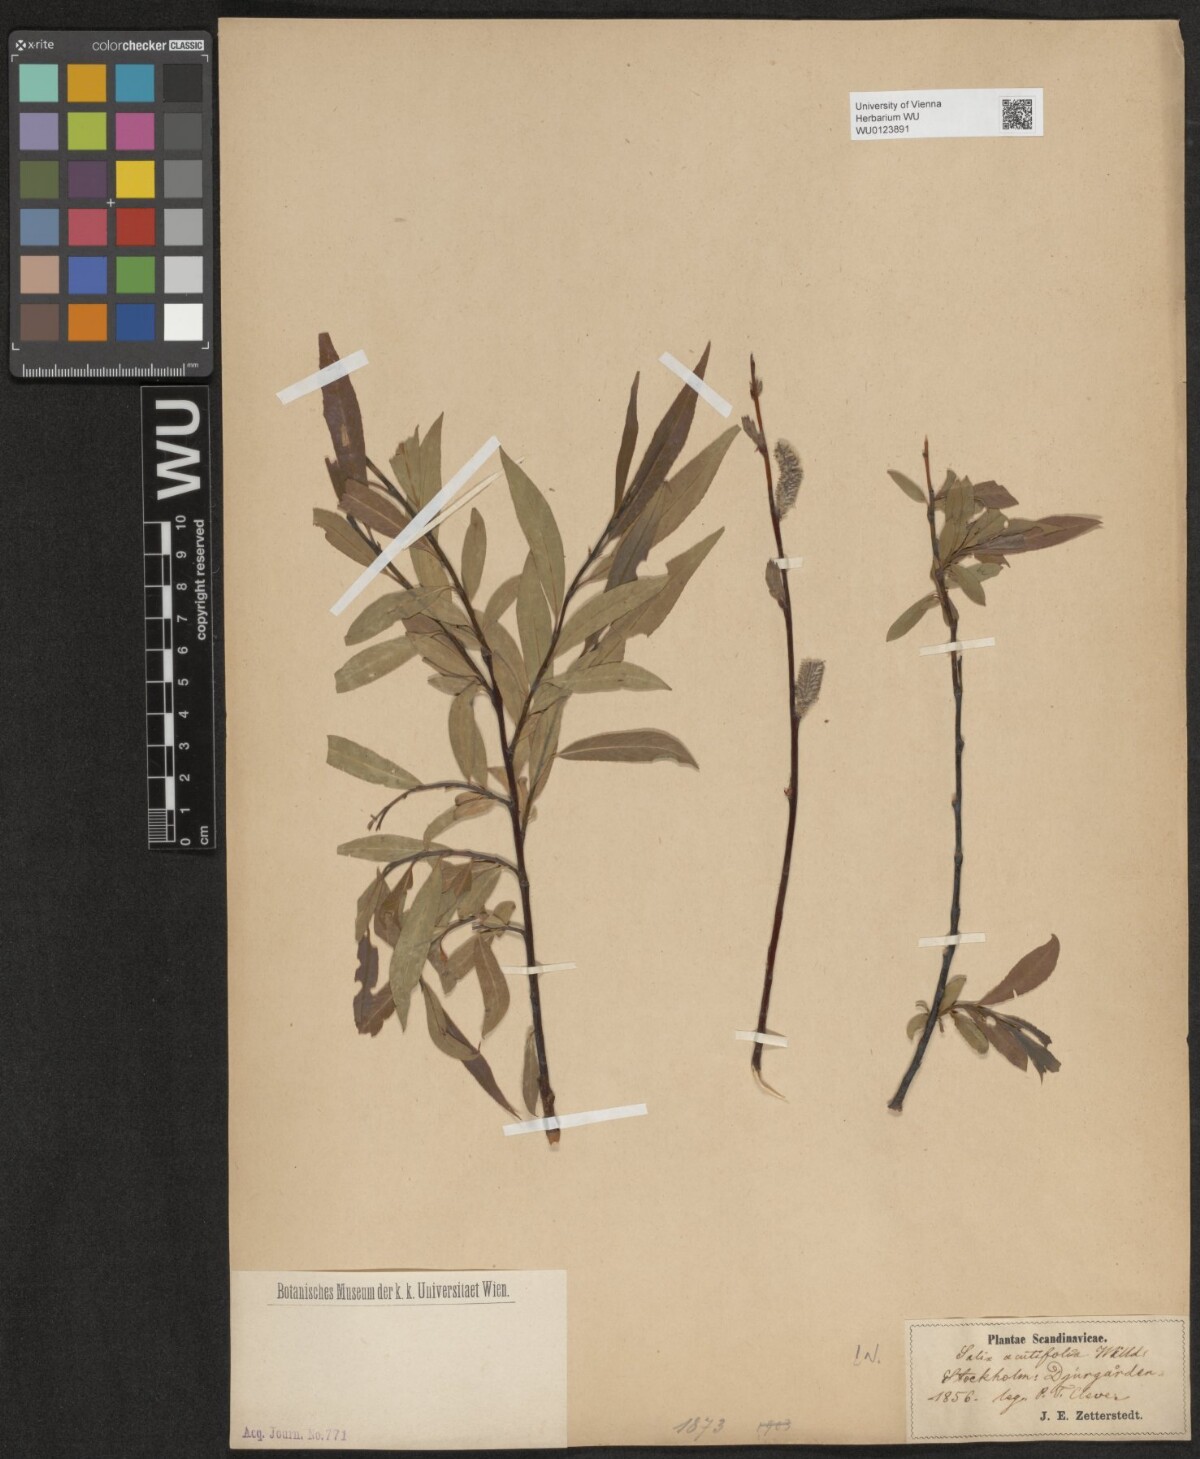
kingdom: Plantae
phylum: Tracheophyta
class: Magnoliopsida
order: Malpighiales
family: Salicaceae
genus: Salix
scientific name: Salix acutifolia
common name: Siberian violet-willow
